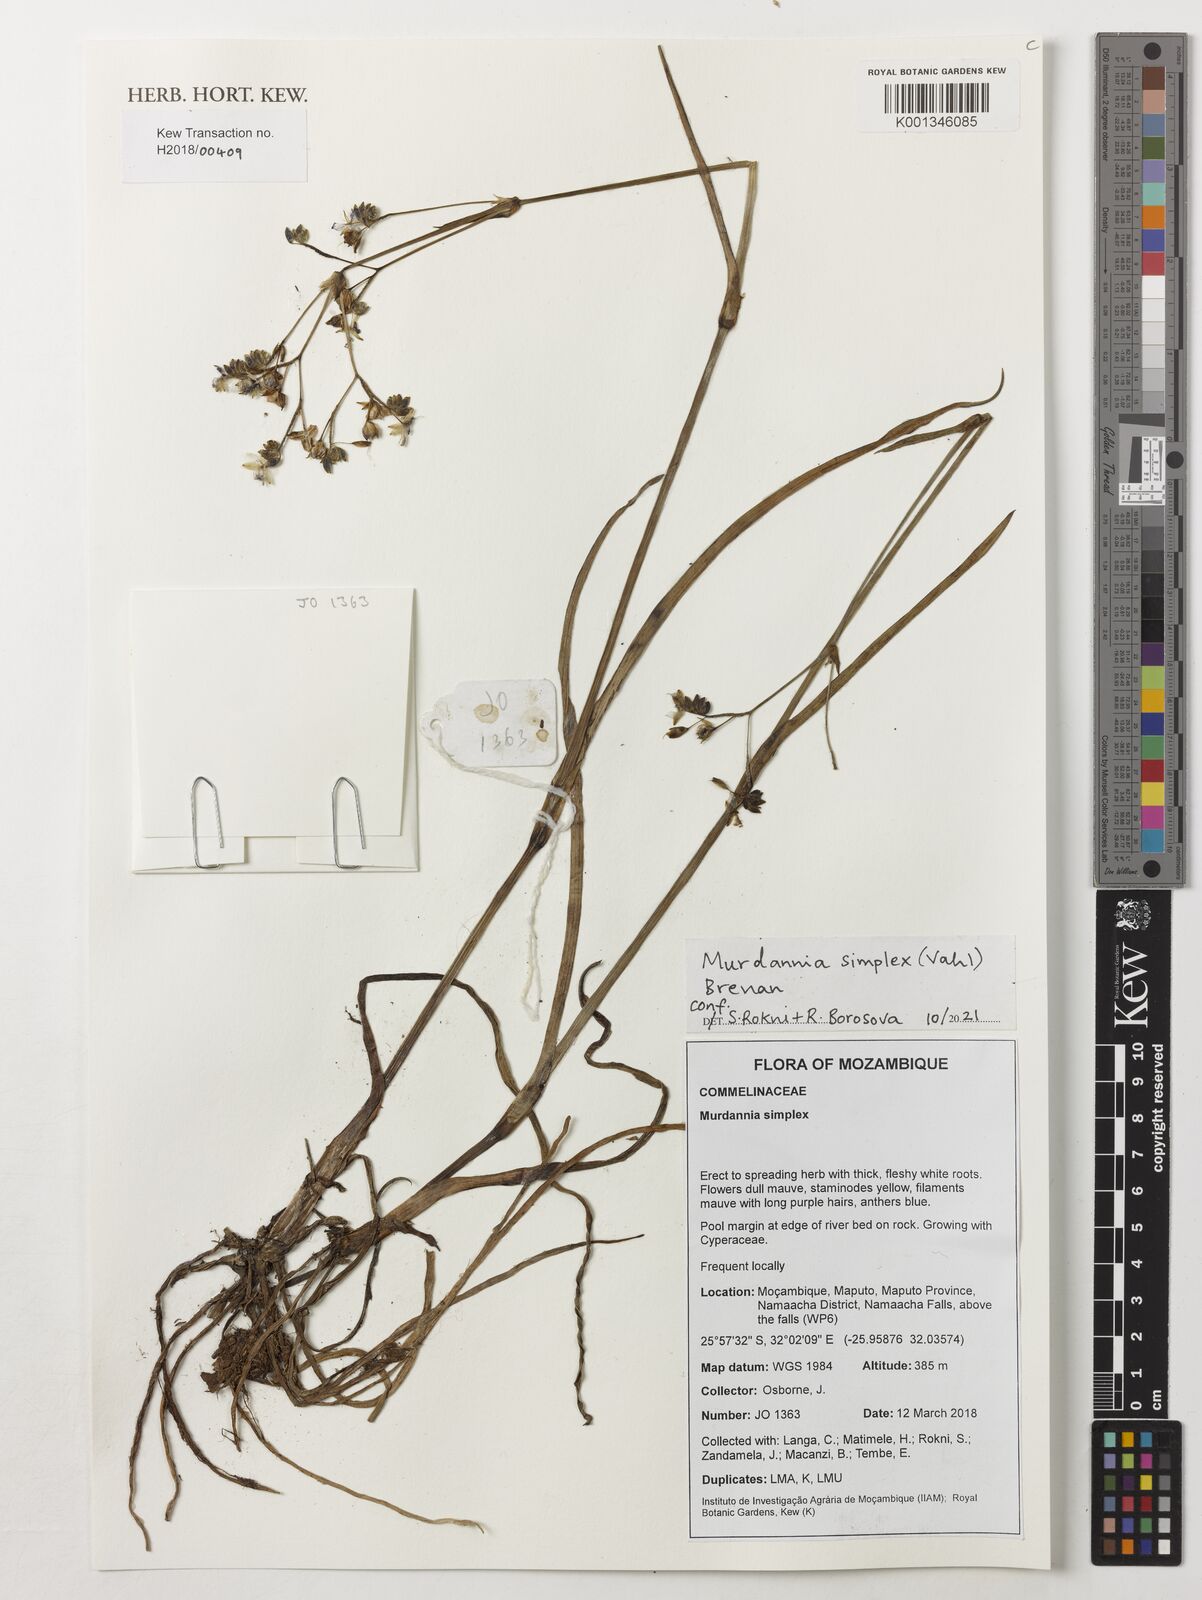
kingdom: Plantae
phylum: Tracheophyta
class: Liliopsida
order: Commelinales
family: Commelinaceae
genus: Murdannia
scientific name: Murdannia simplex
